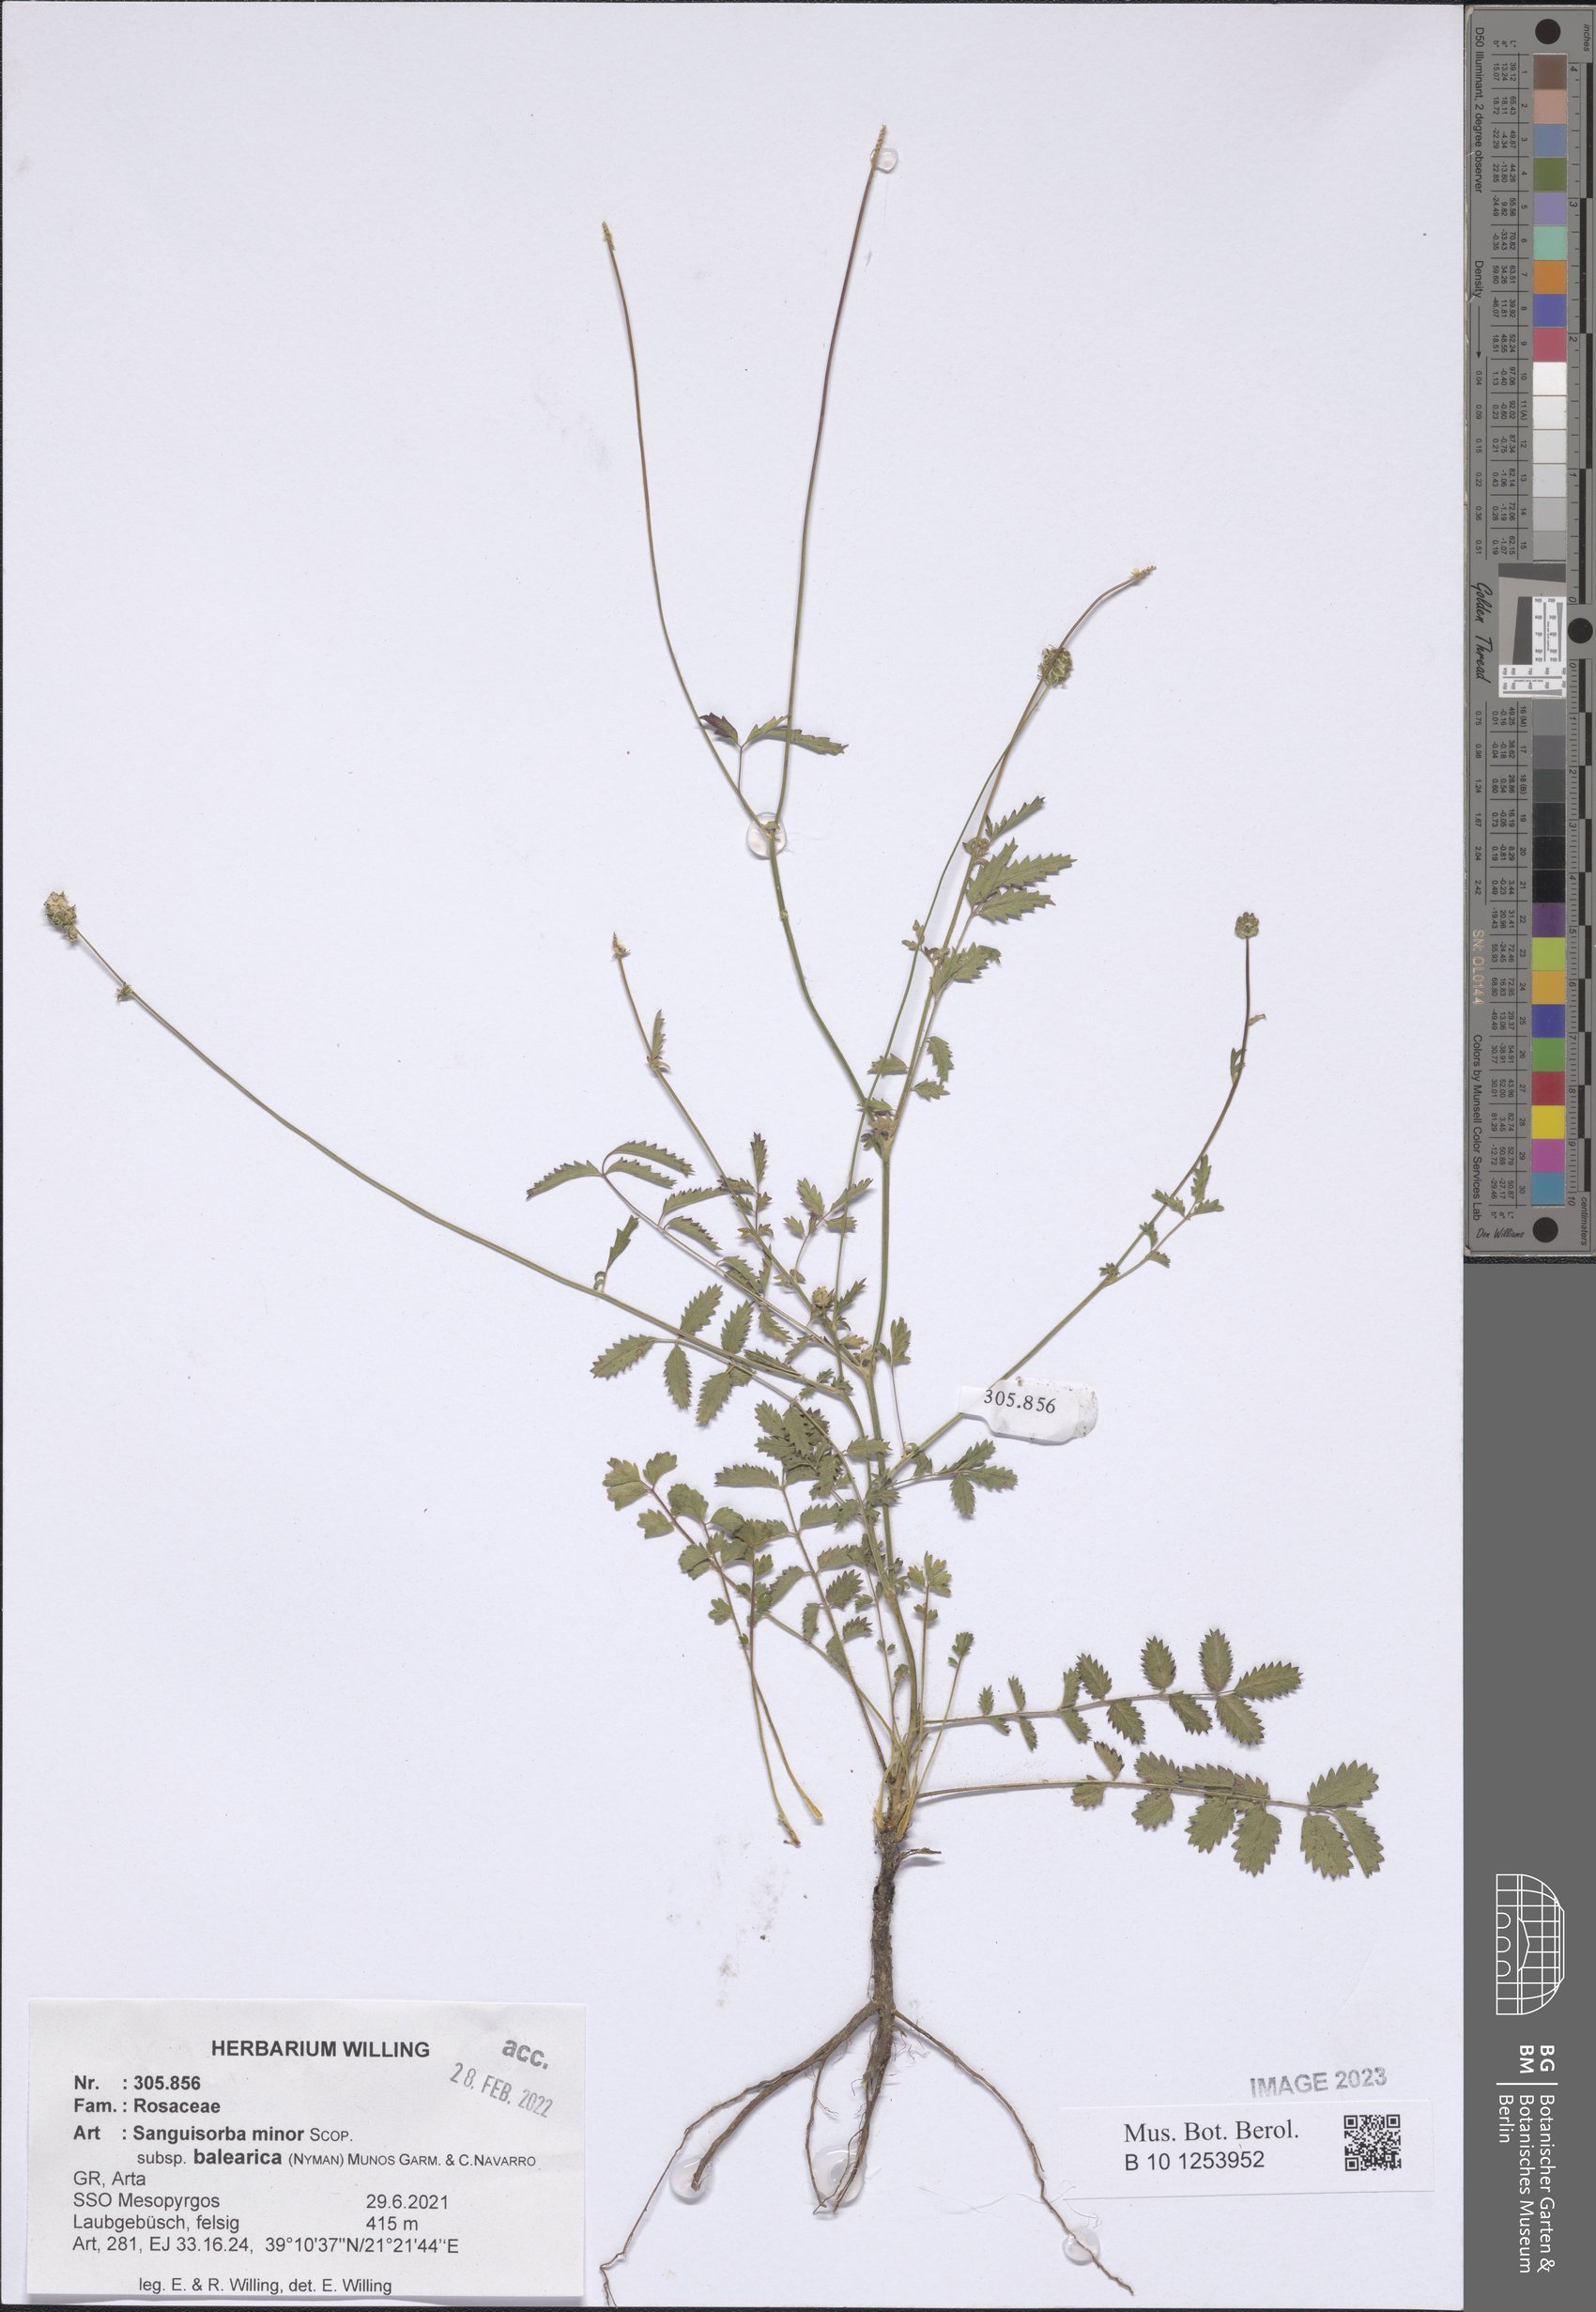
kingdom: Plantae
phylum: Tracheophyta
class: Magnoliopsida
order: Rosales
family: Rosaceae
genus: Poterium
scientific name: Poterium sanguisorba
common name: Salad burnet
